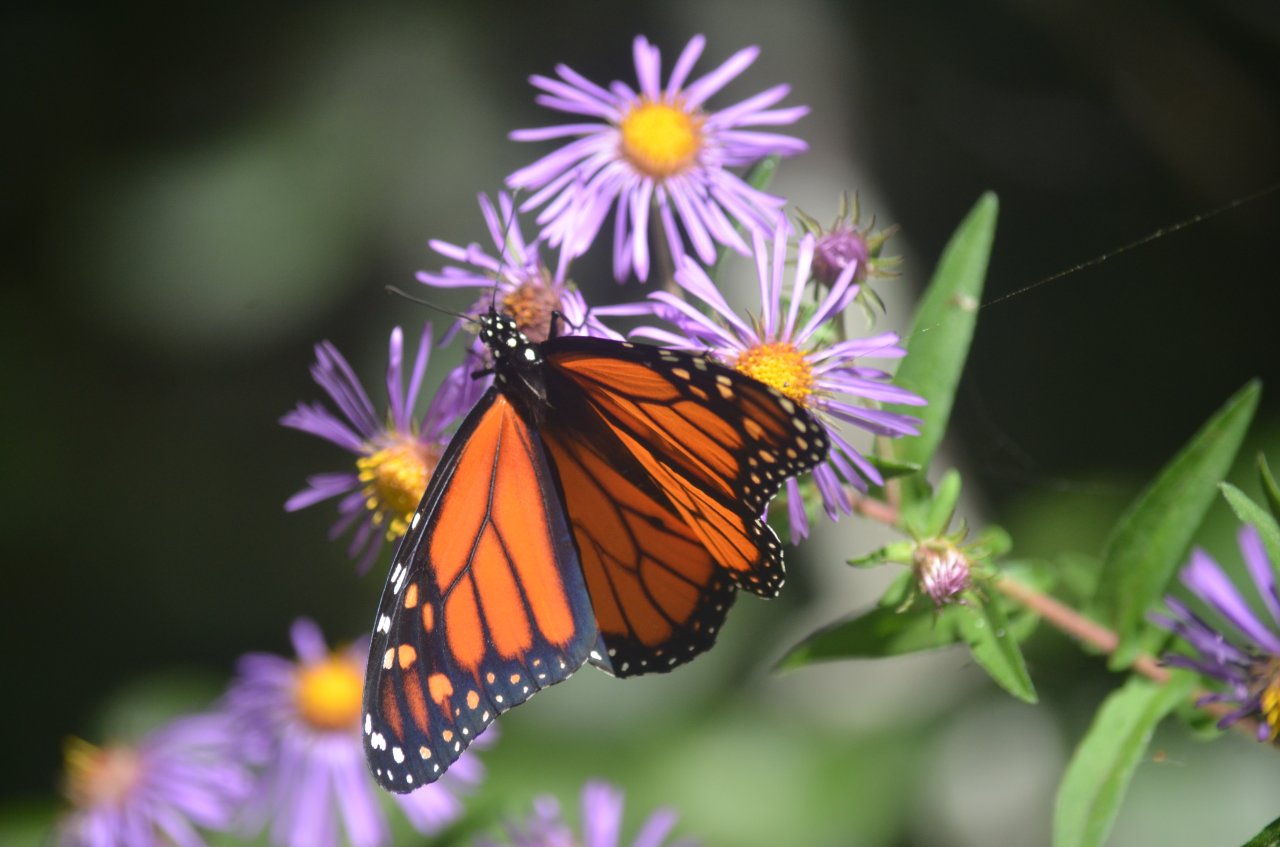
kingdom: Animalia
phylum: Arthropoda
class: Insecta
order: Lepidoptera
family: Nymphalidae
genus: Danaus
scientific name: Danaus plexippus
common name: Monarch
